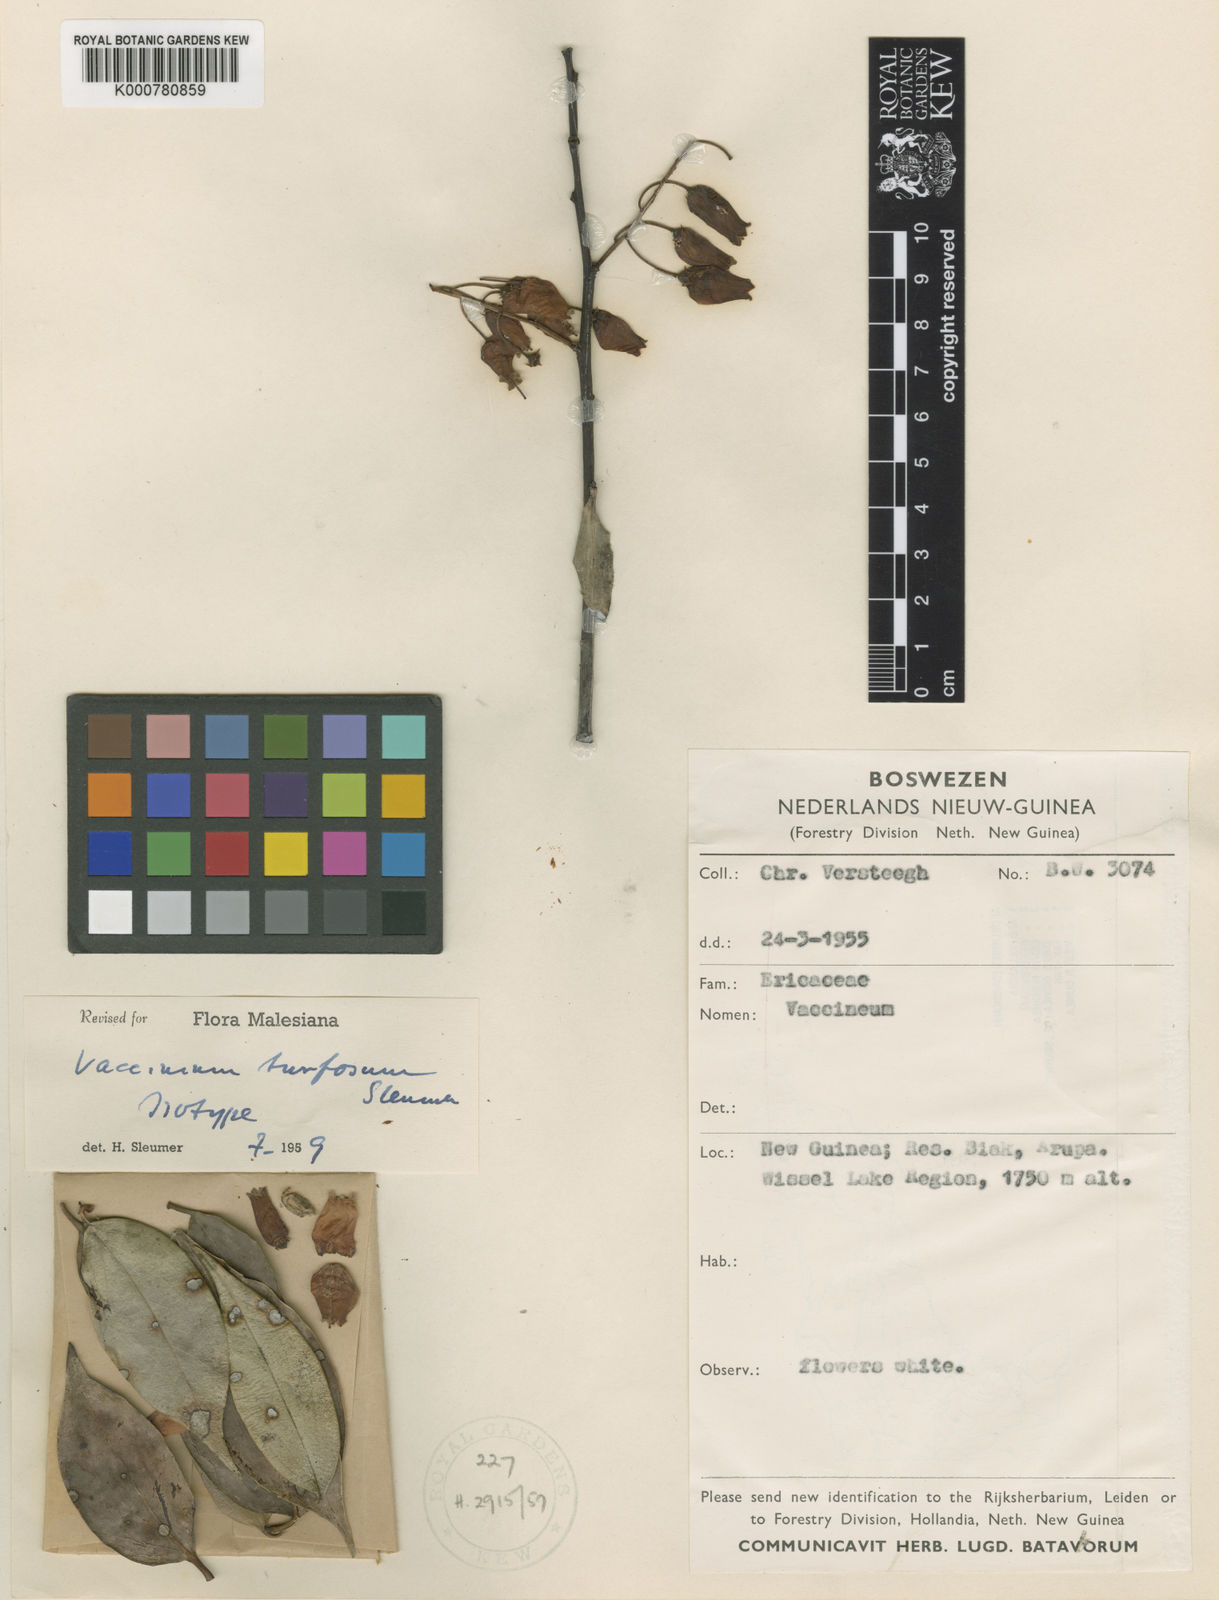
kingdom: Plantae
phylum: Tracheophyta
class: Magnoliopsida
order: Ericales
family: Ericaceae
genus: Vaccinium
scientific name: Vaccinium turfosum
